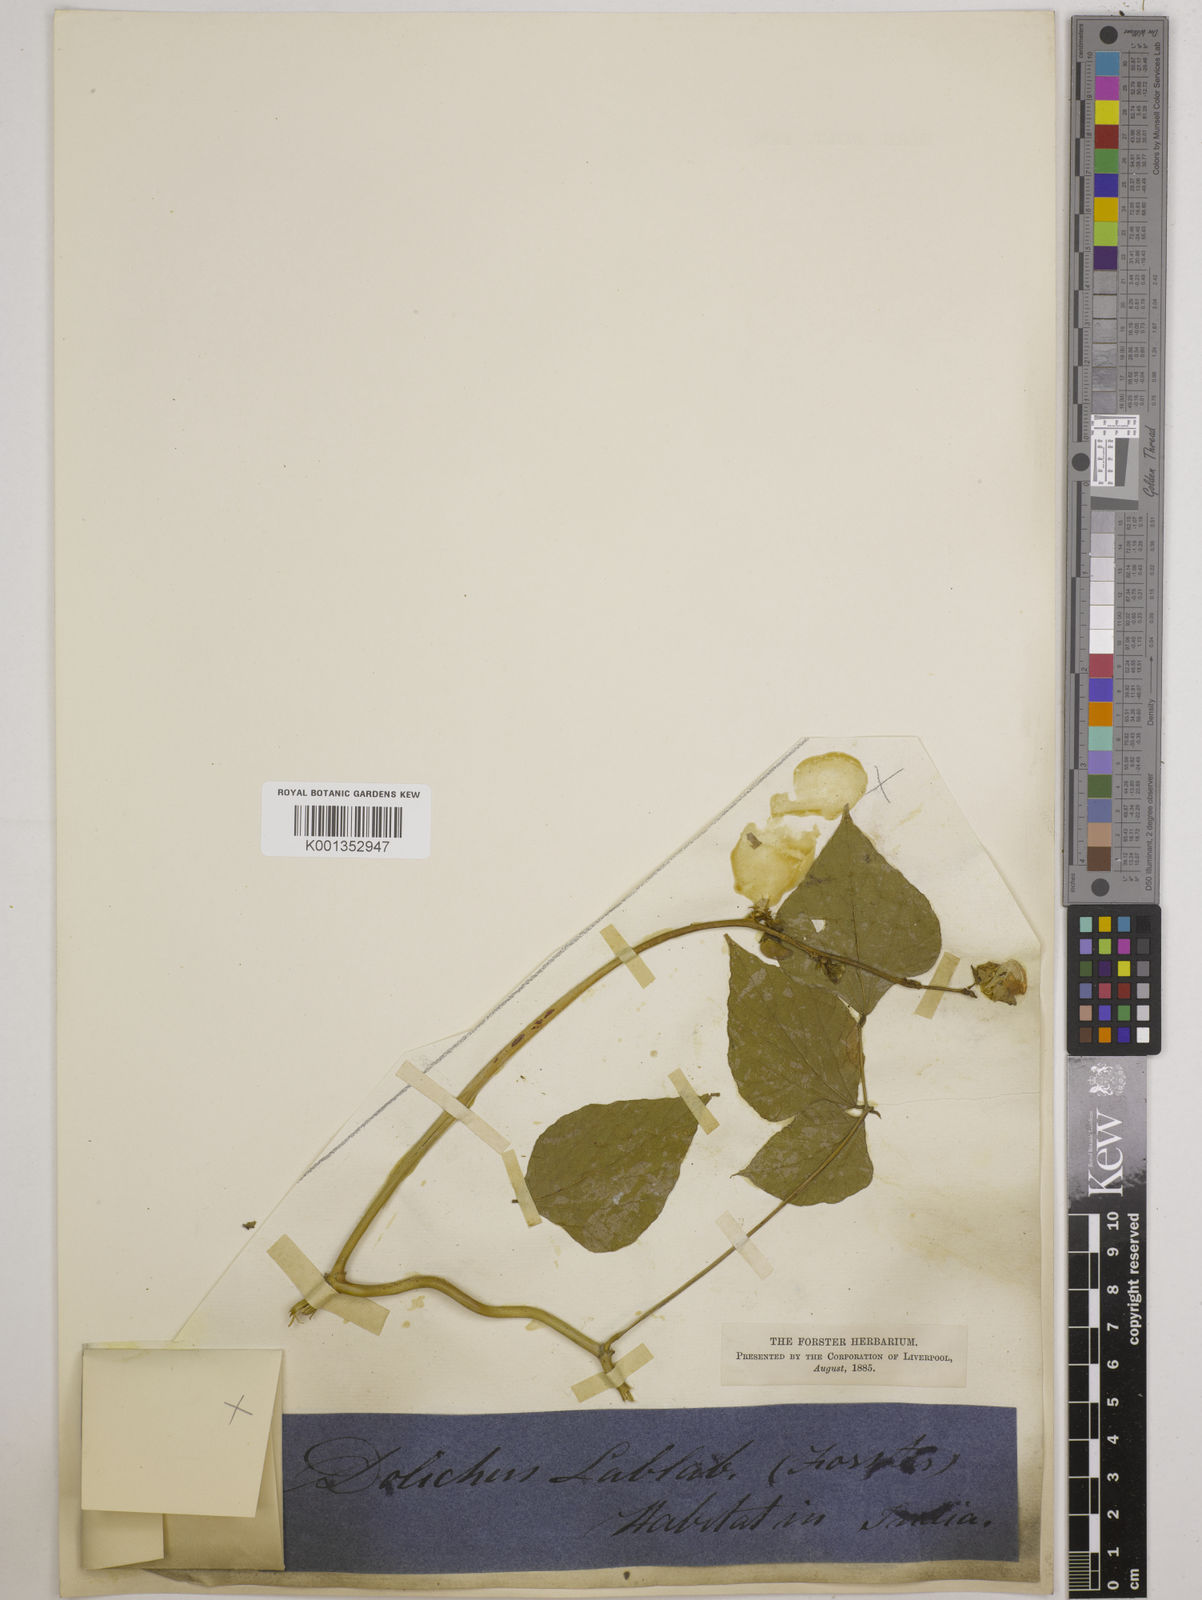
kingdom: Plantae
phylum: Tracheophyta
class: Magnoliopsida
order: Fabales
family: Fabaceae
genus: Lablab
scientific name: Lablab purpureus
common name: Lablab-bean
